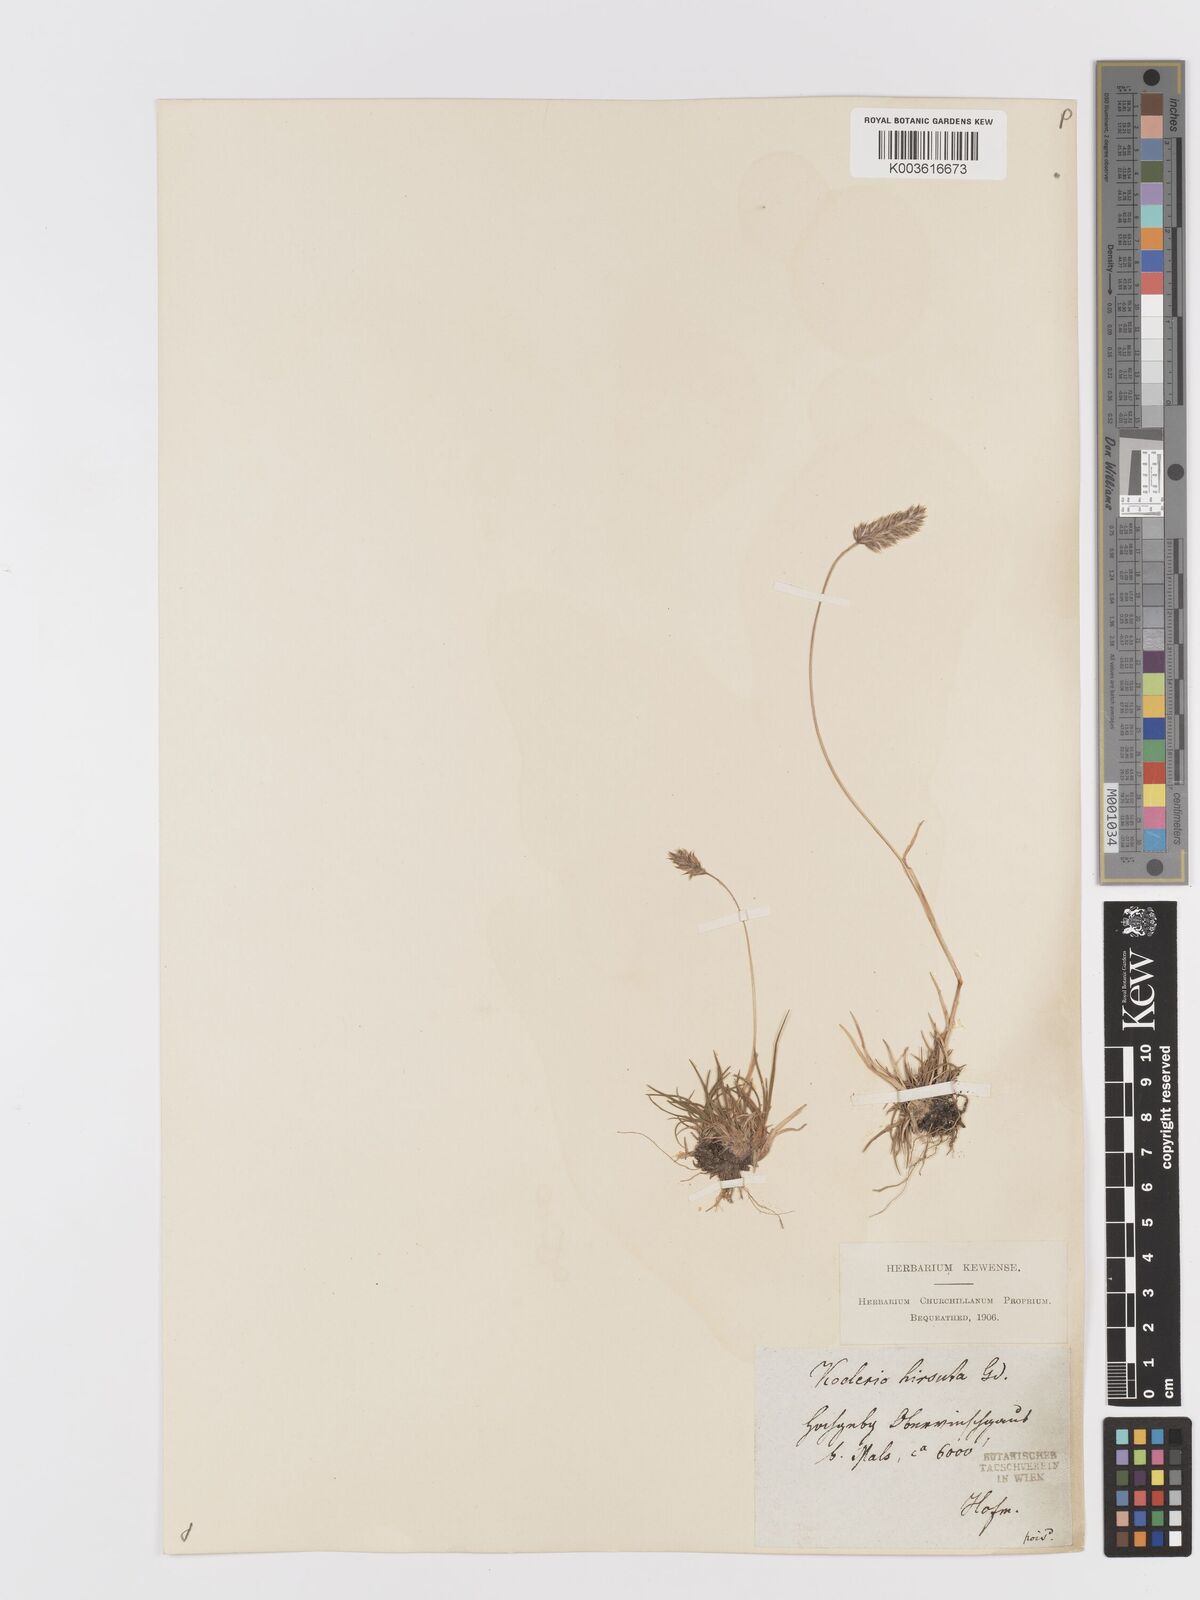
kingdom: Plantae
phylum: Tracheophyta
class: Liliopsida
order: Poales
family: Poaceae
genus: Koeleria
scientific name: Koeleria hirsuta
